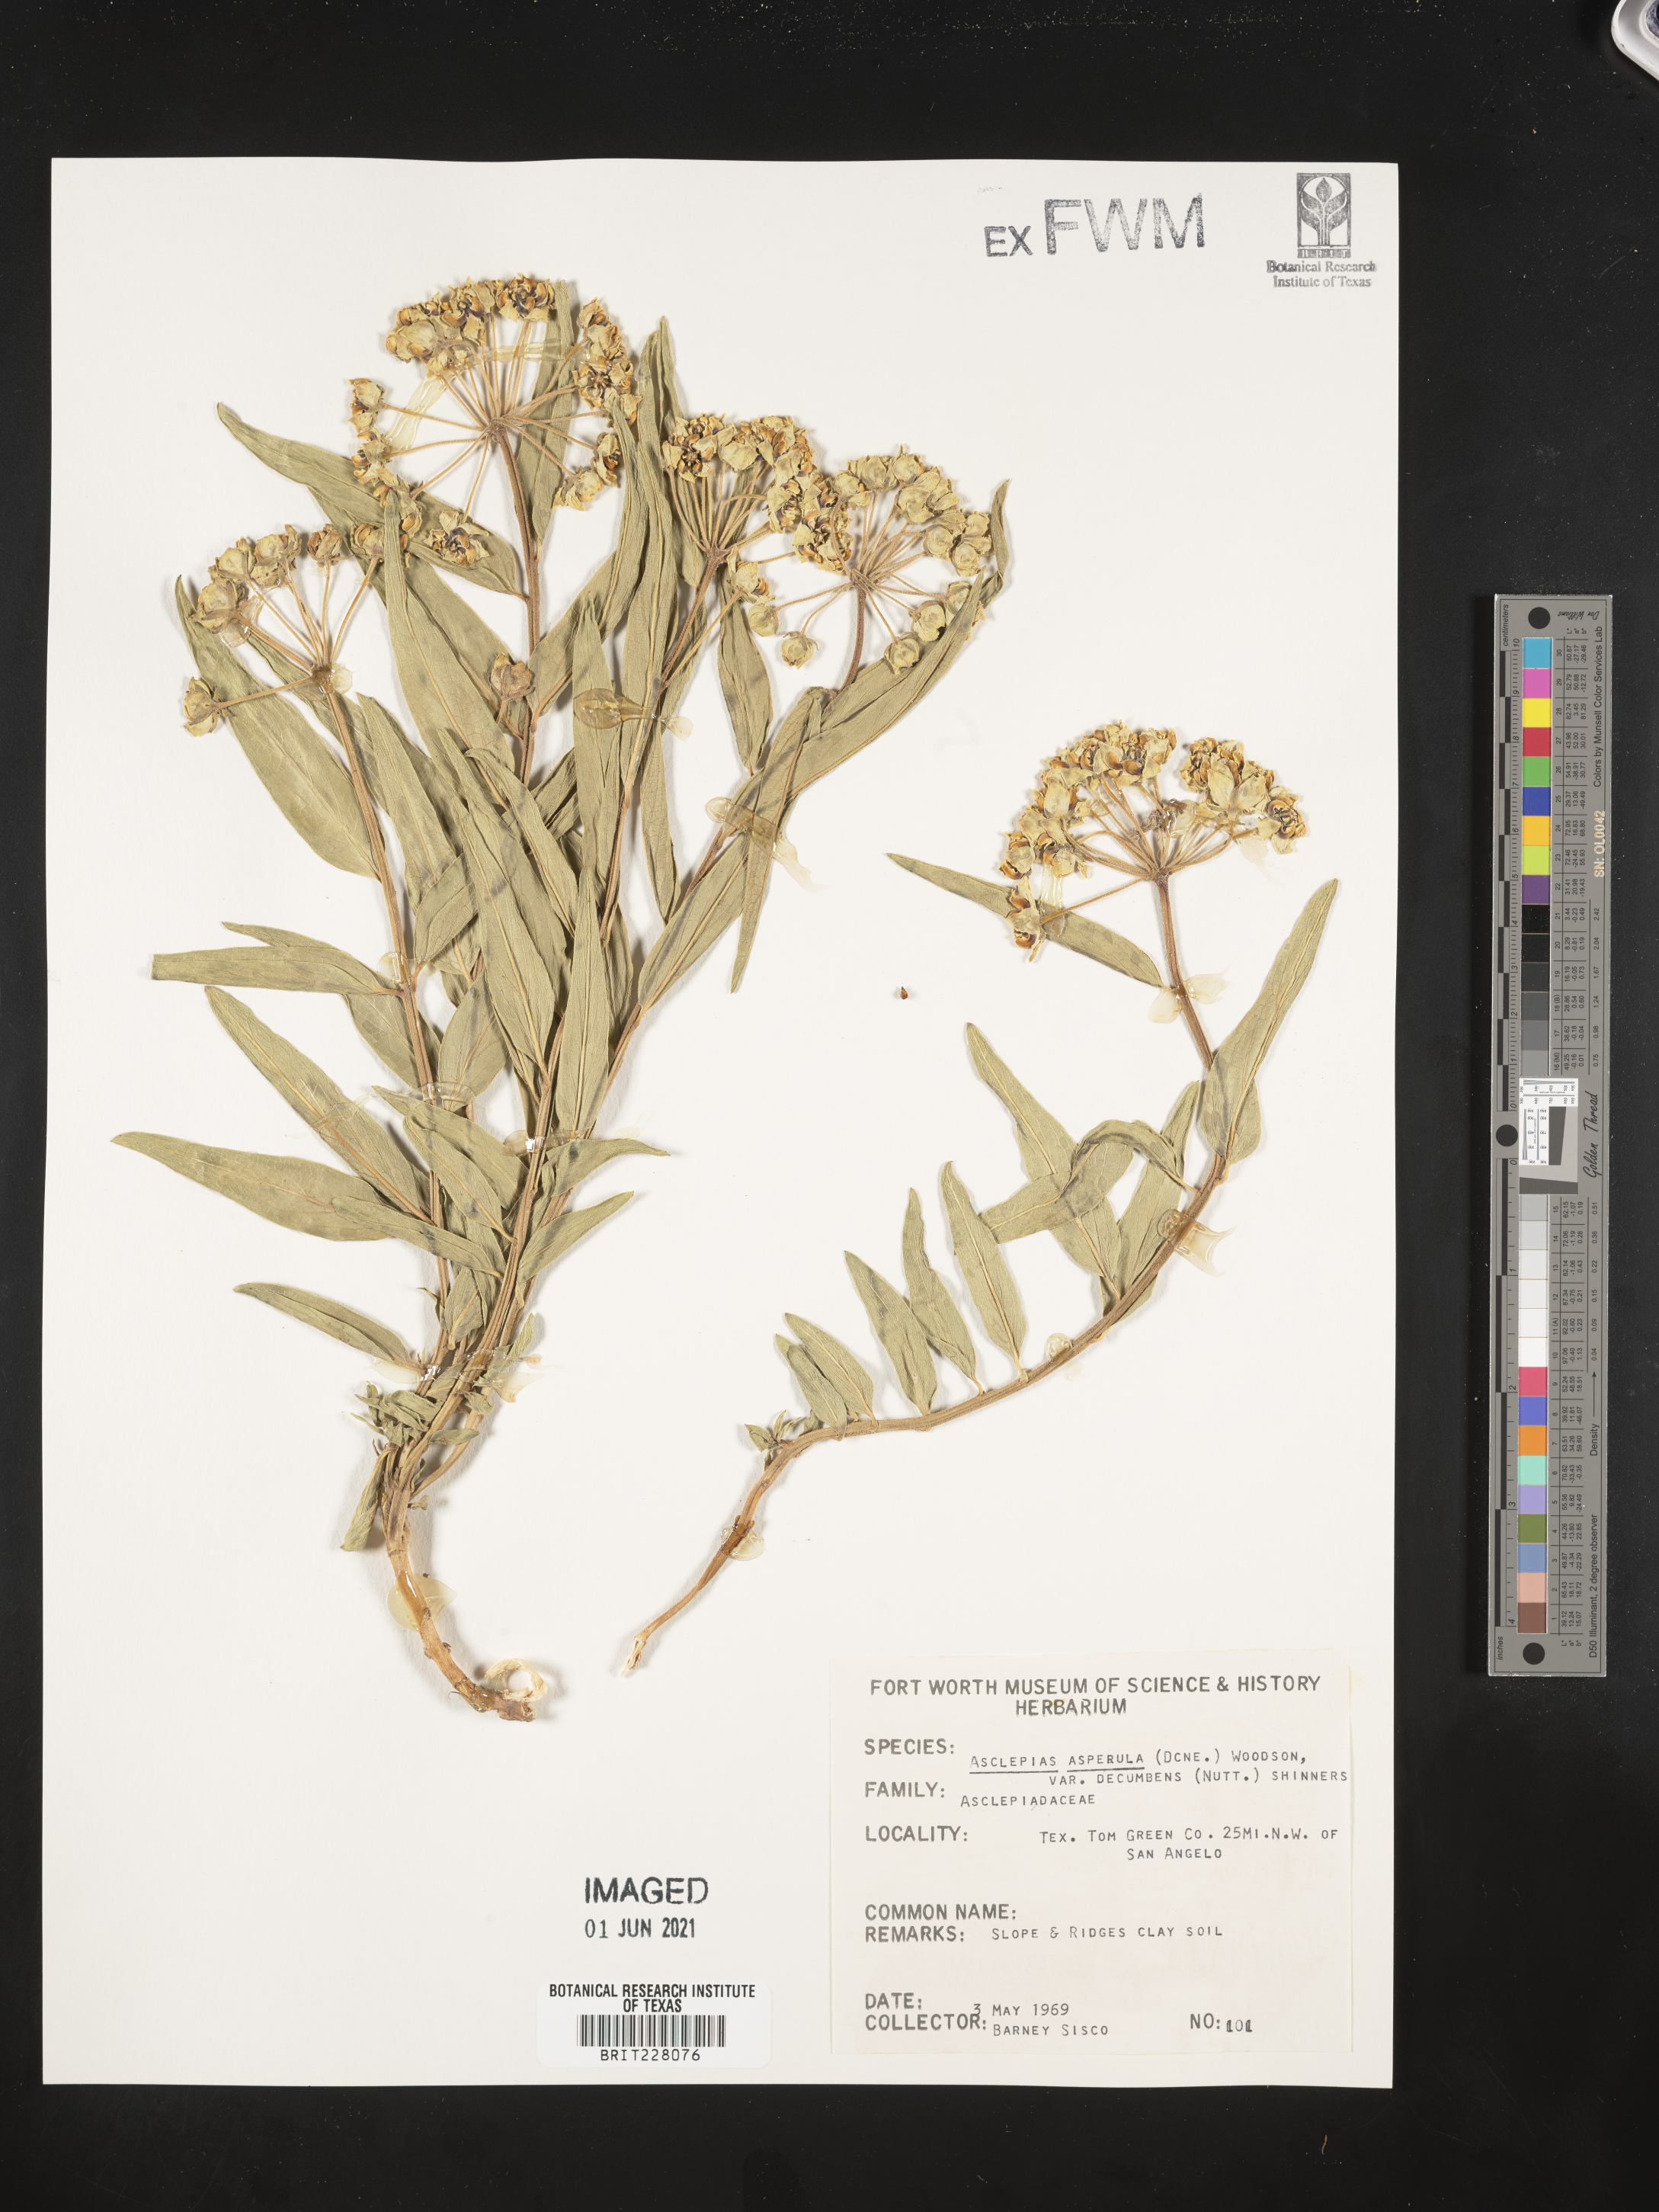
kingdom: Plantae
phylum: Tracheophyta
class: Magnoliopsida
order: Gentianales
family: Apocynaceae
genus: Asclepias
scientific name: Asclepias asperula
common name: Antelope horns
